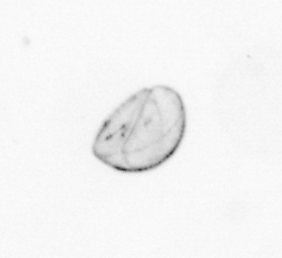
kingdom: Chromista
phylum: Ochrophyta
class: Bacillariophyceae
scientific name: Bacillariophyceae
